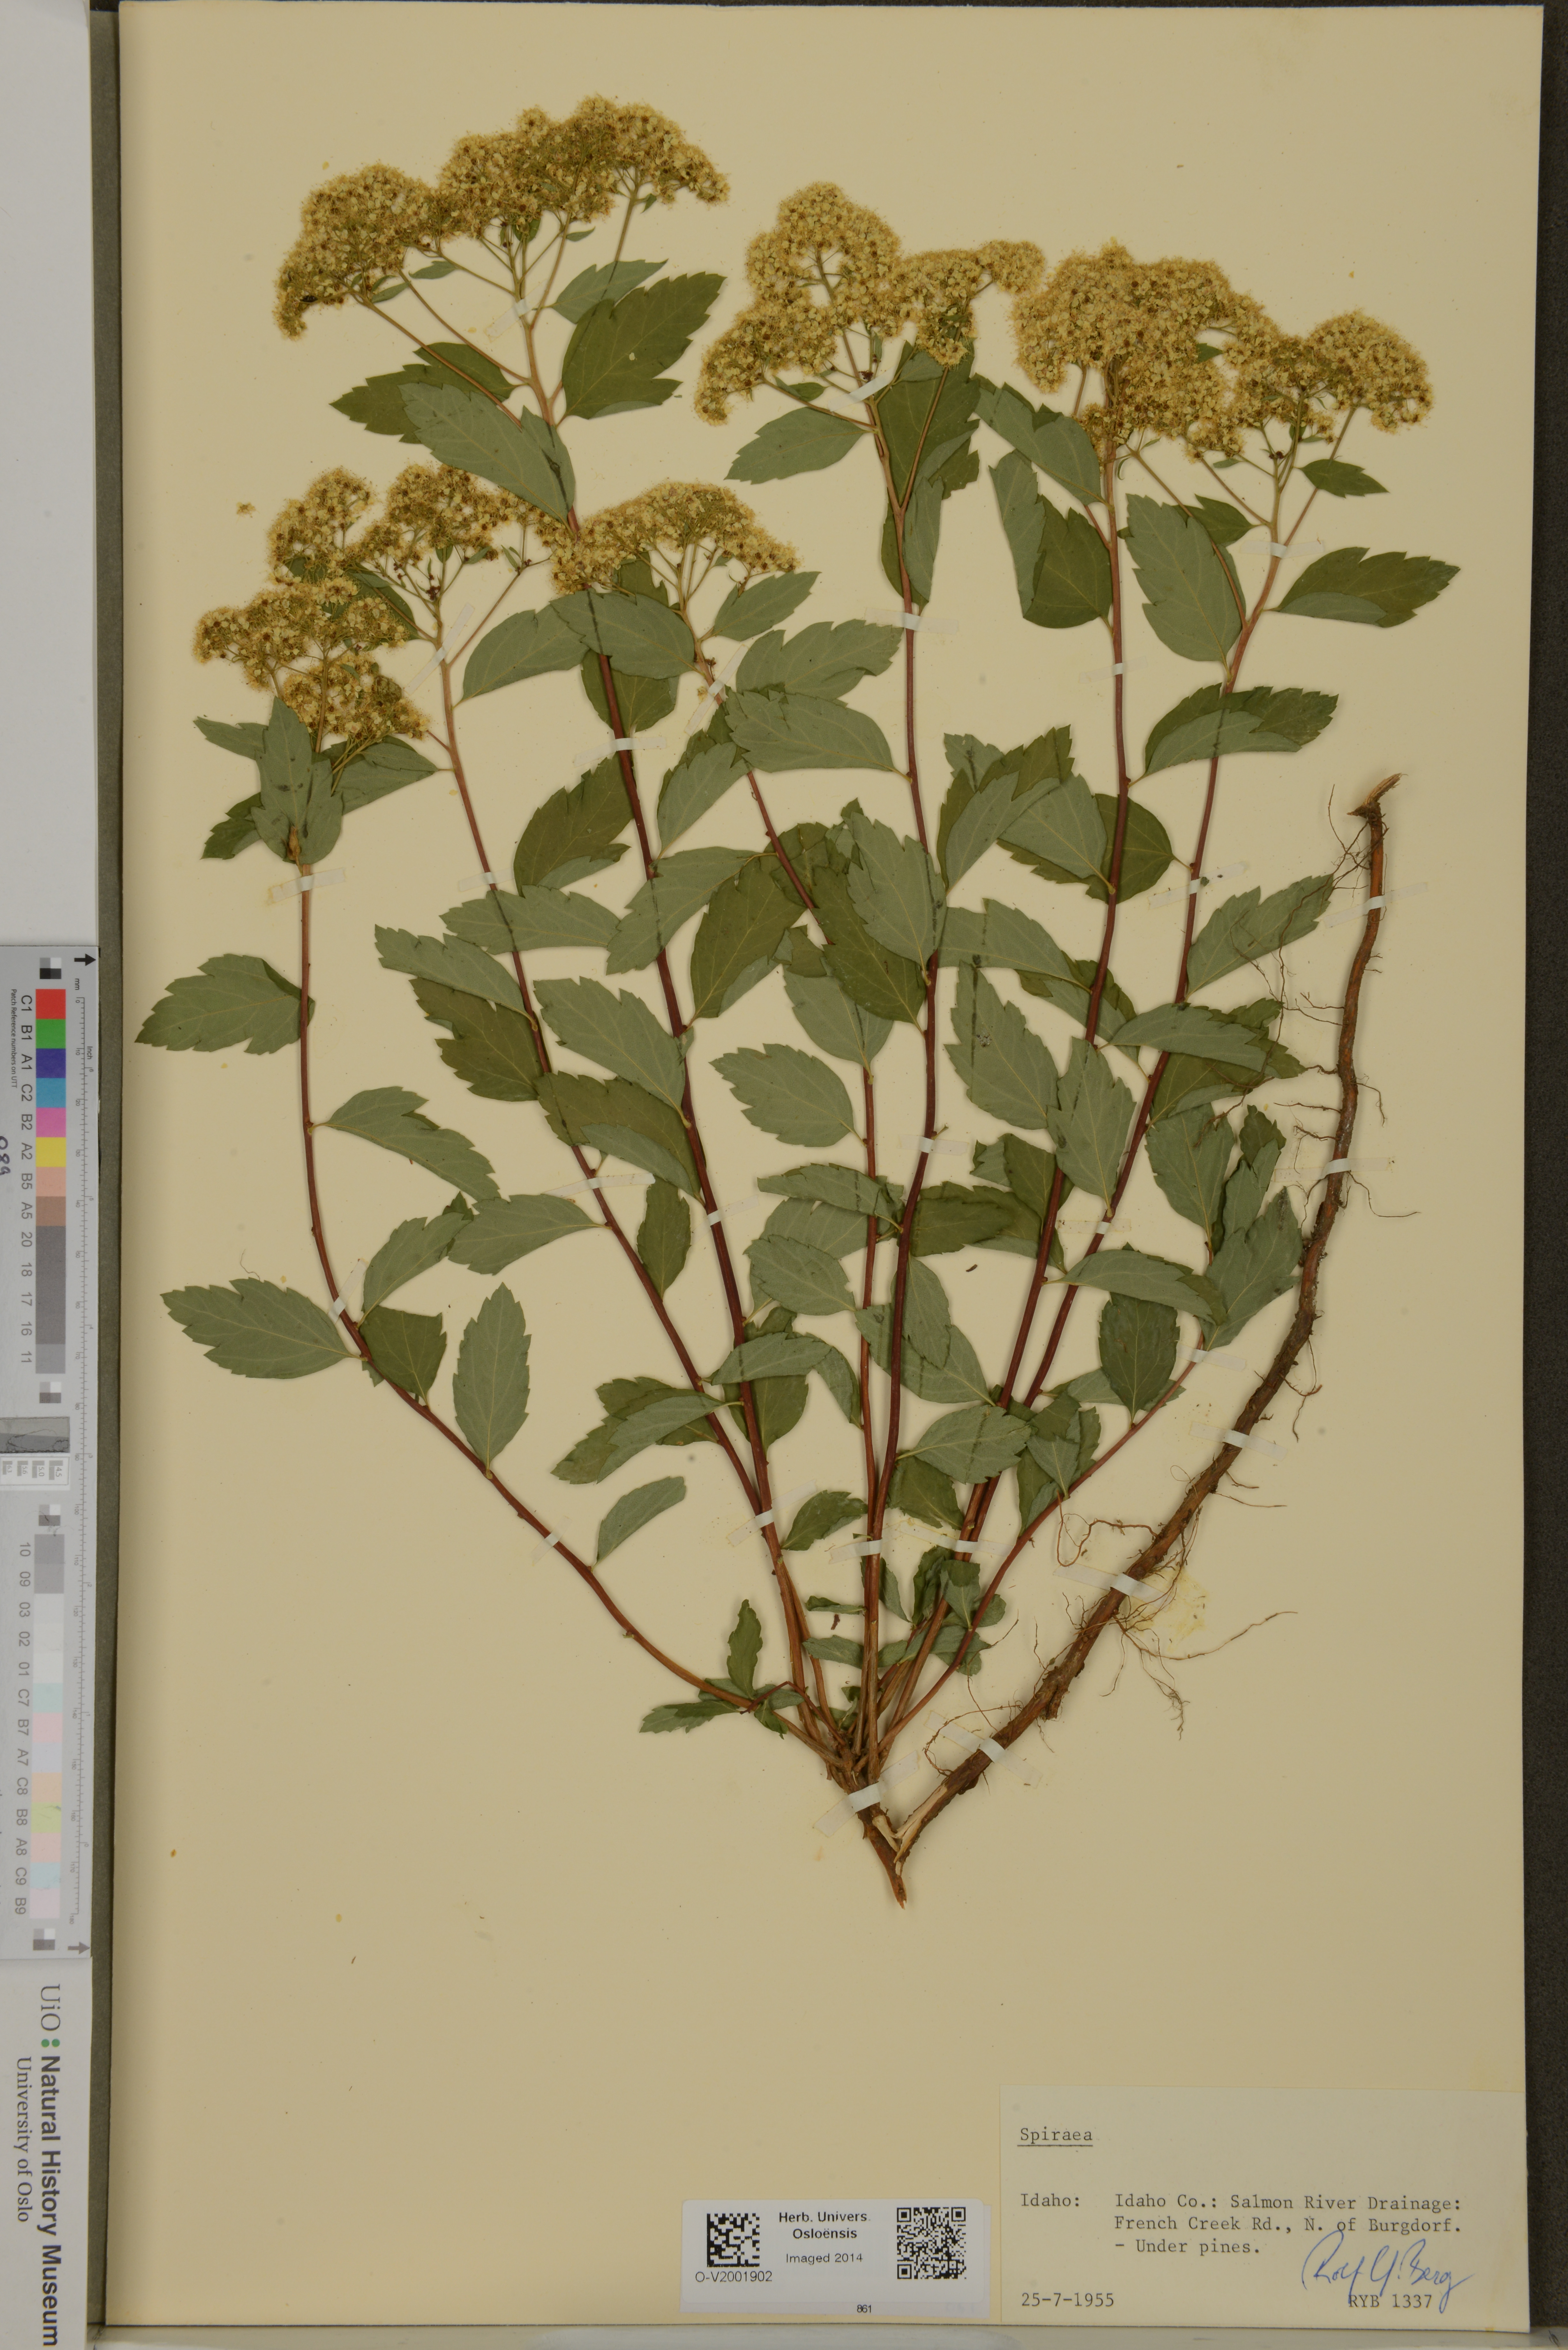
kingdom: Plantae
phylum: Tracheophyta
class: Magnoliopsida
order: Rosales
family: Rosaceae
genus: Spiraea
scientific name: Spiraea
